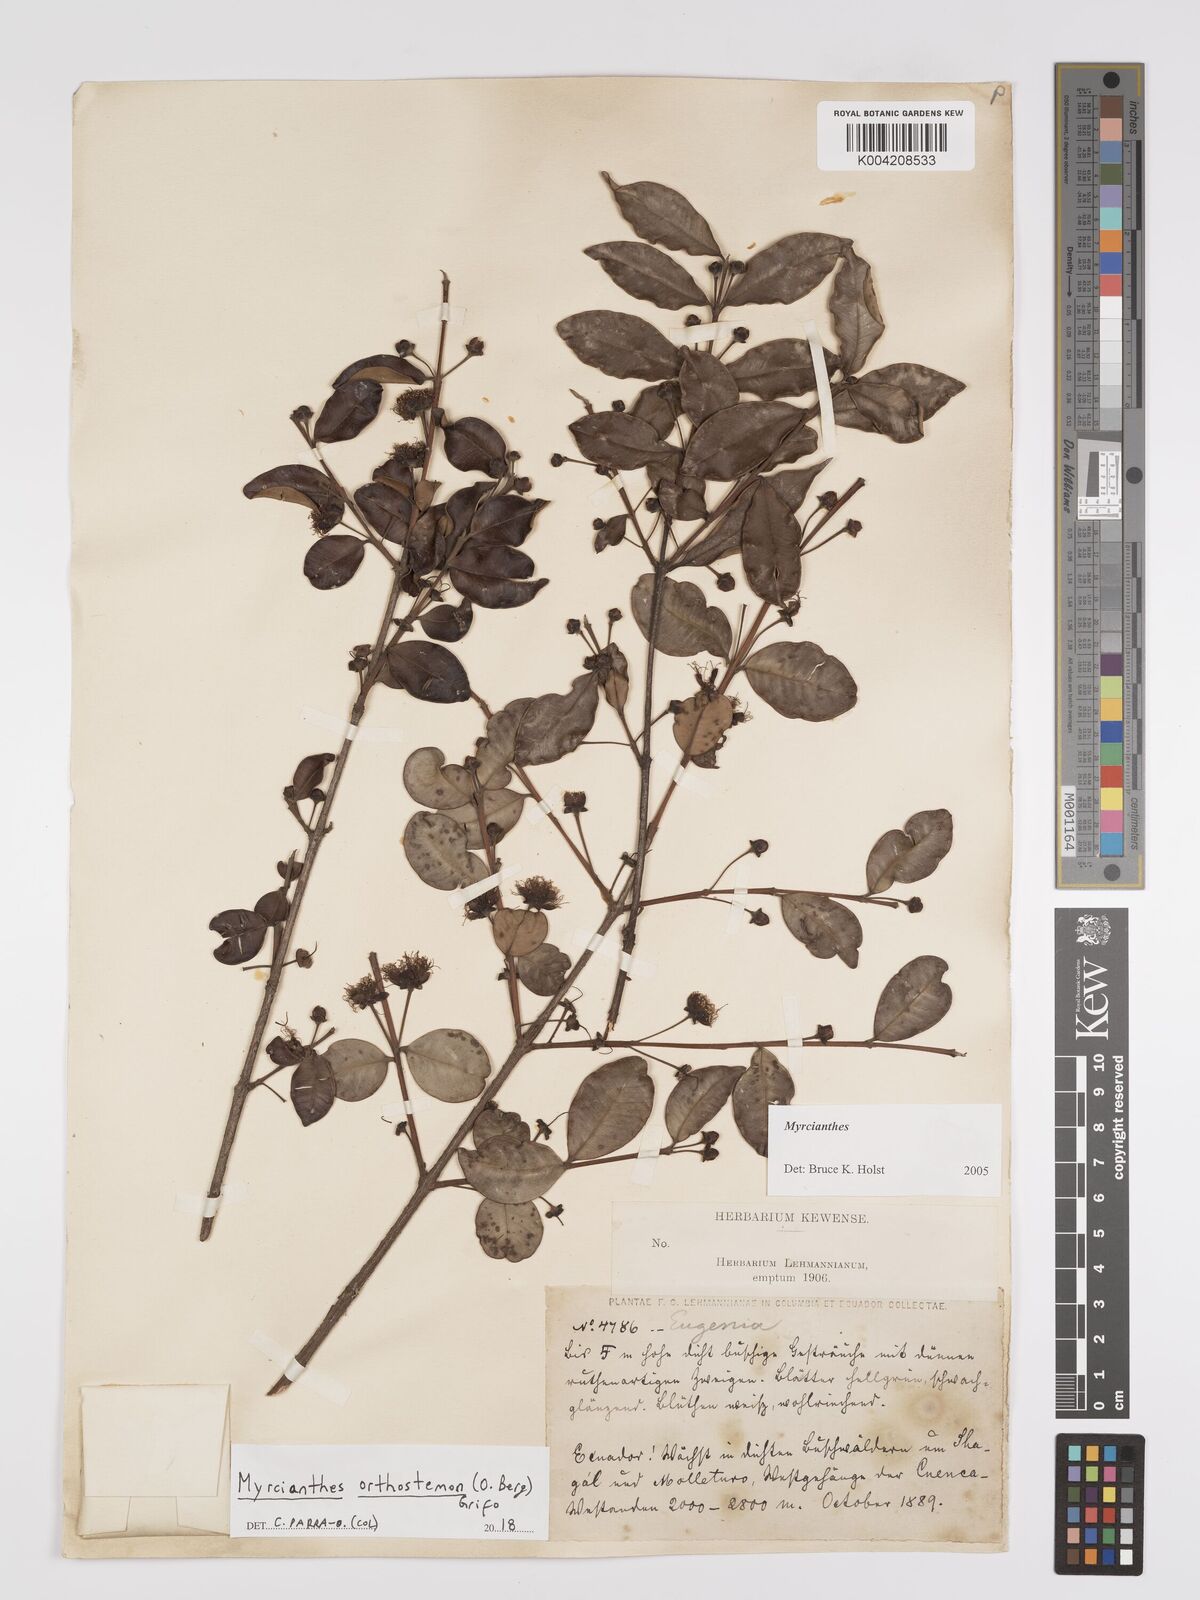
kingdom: Plantae
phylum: Tracheophyta
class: Magnoliopsida
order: Myrtales
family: Myrtaceae
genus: Myrcianthes
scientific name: Myrcianthes orthostemon
